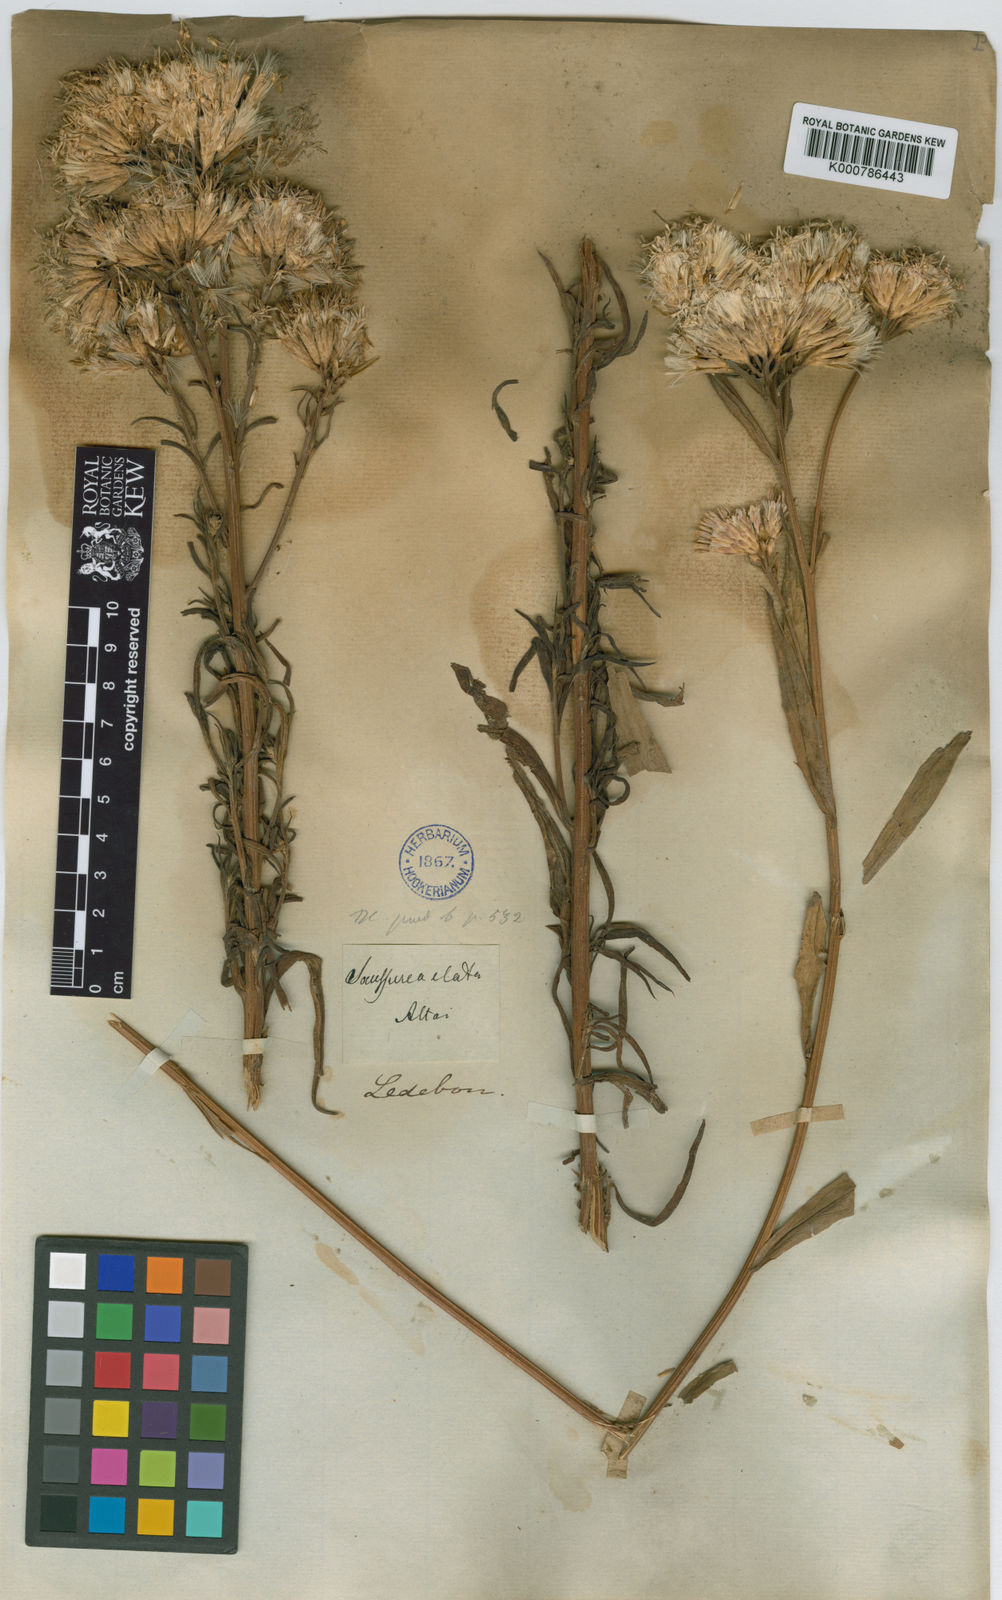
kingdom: Plantae
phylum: Tracheophyta
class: Magnoliopsida
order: Asterales
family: Asteraceae
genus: Saussurea
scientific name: Saussurea elata
